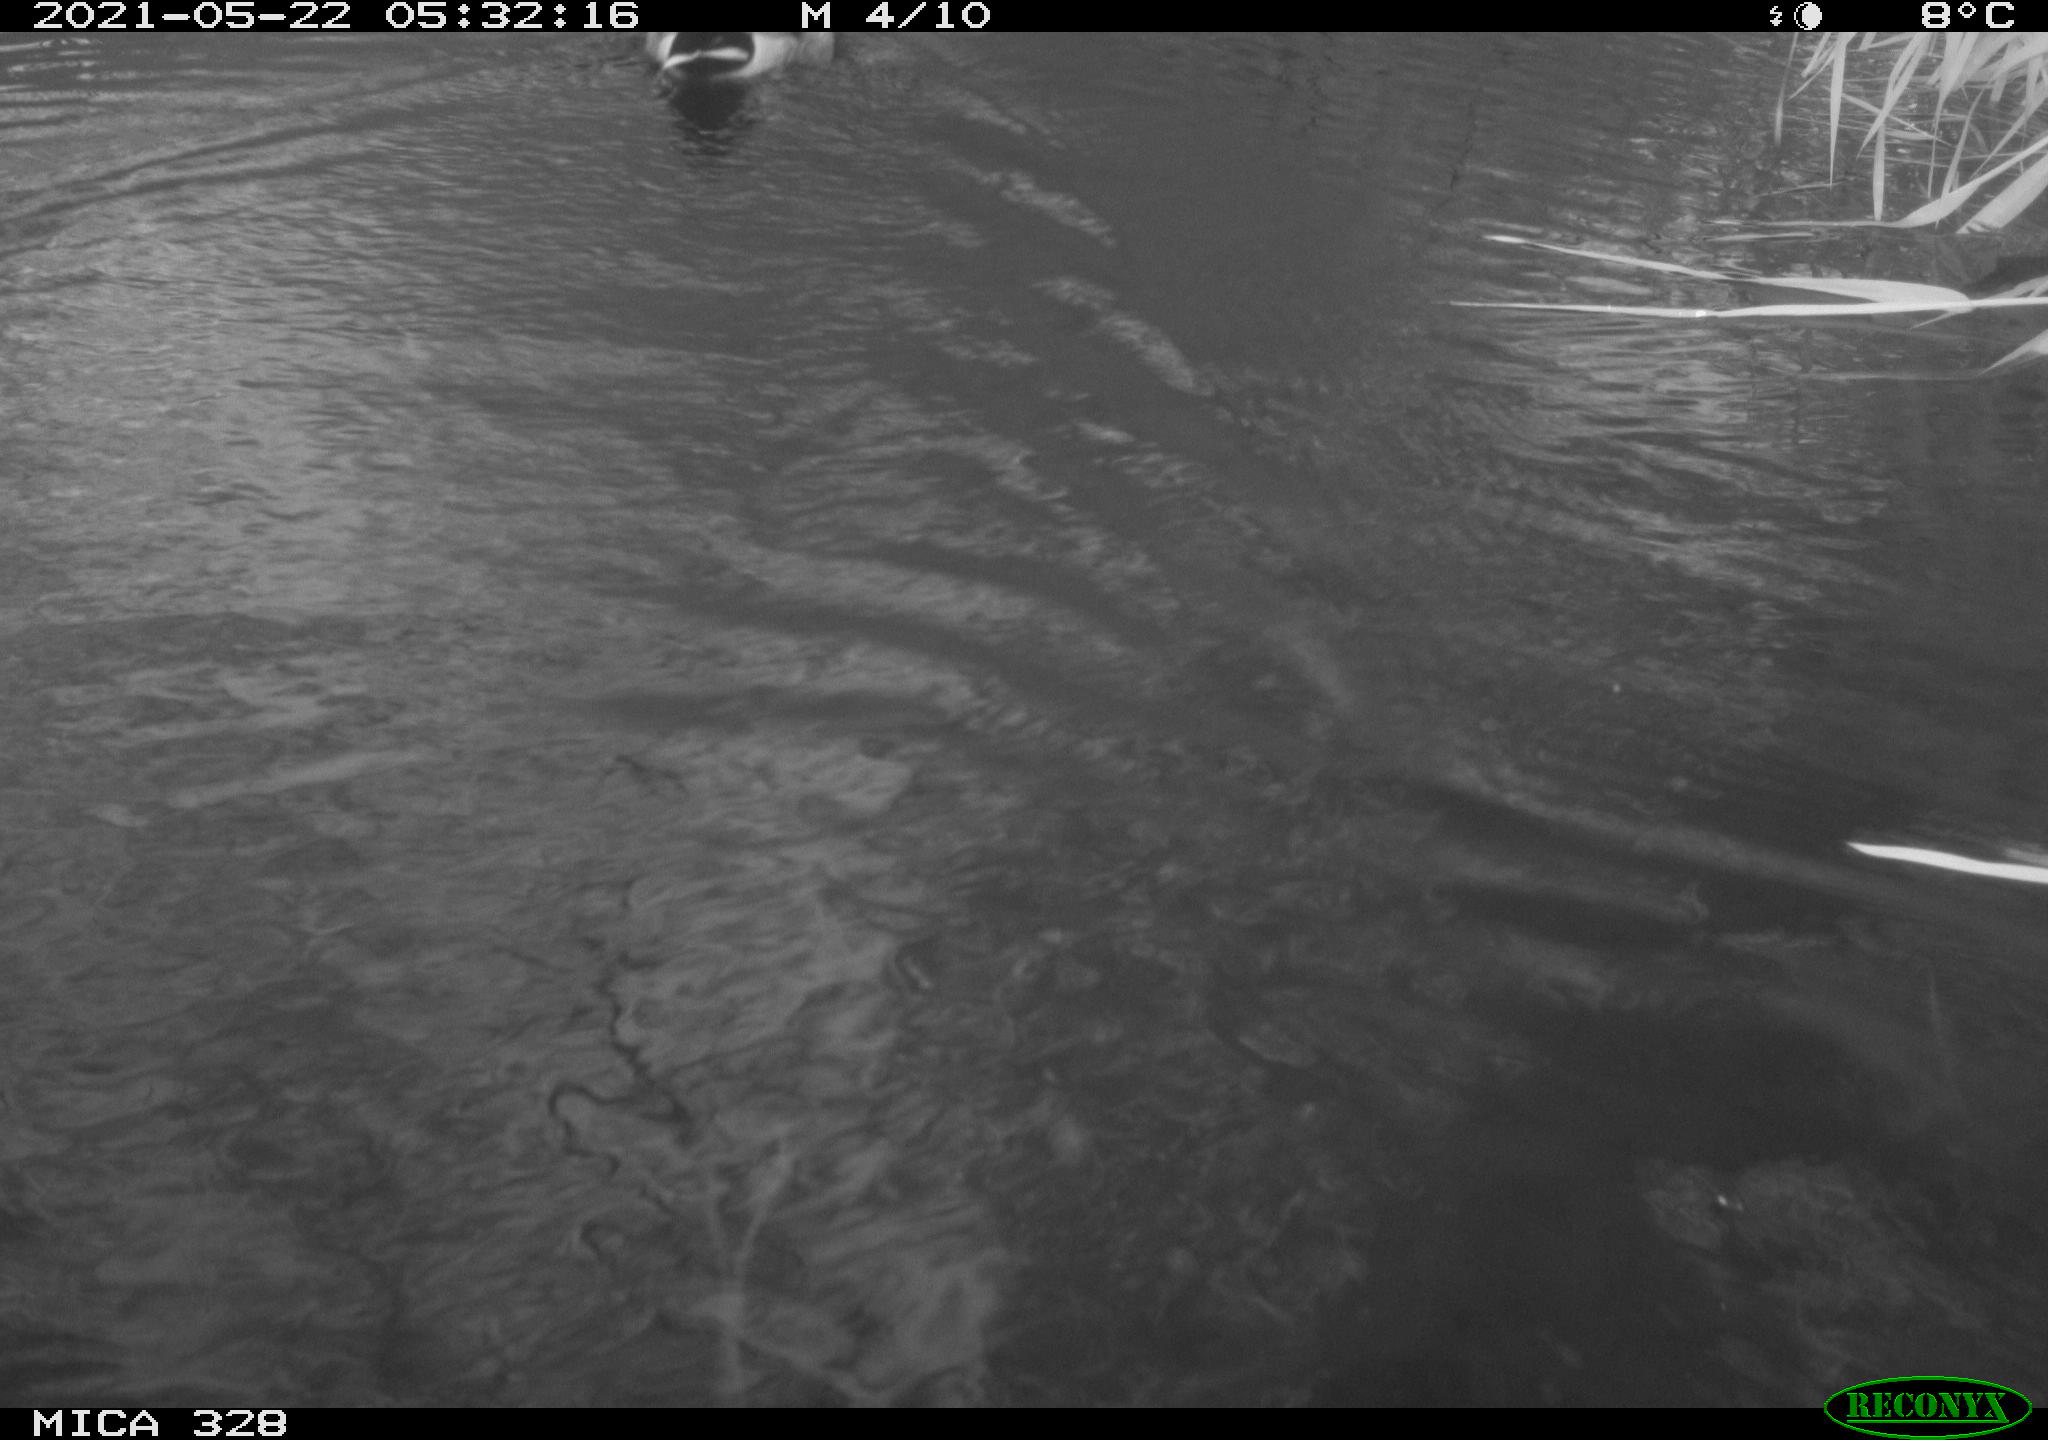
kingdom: Animalia
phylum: Chordata
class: Aves
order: Anseriformes
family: Anatidae
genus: Anas
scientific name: Anas platyrhynchos
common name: Mallard
